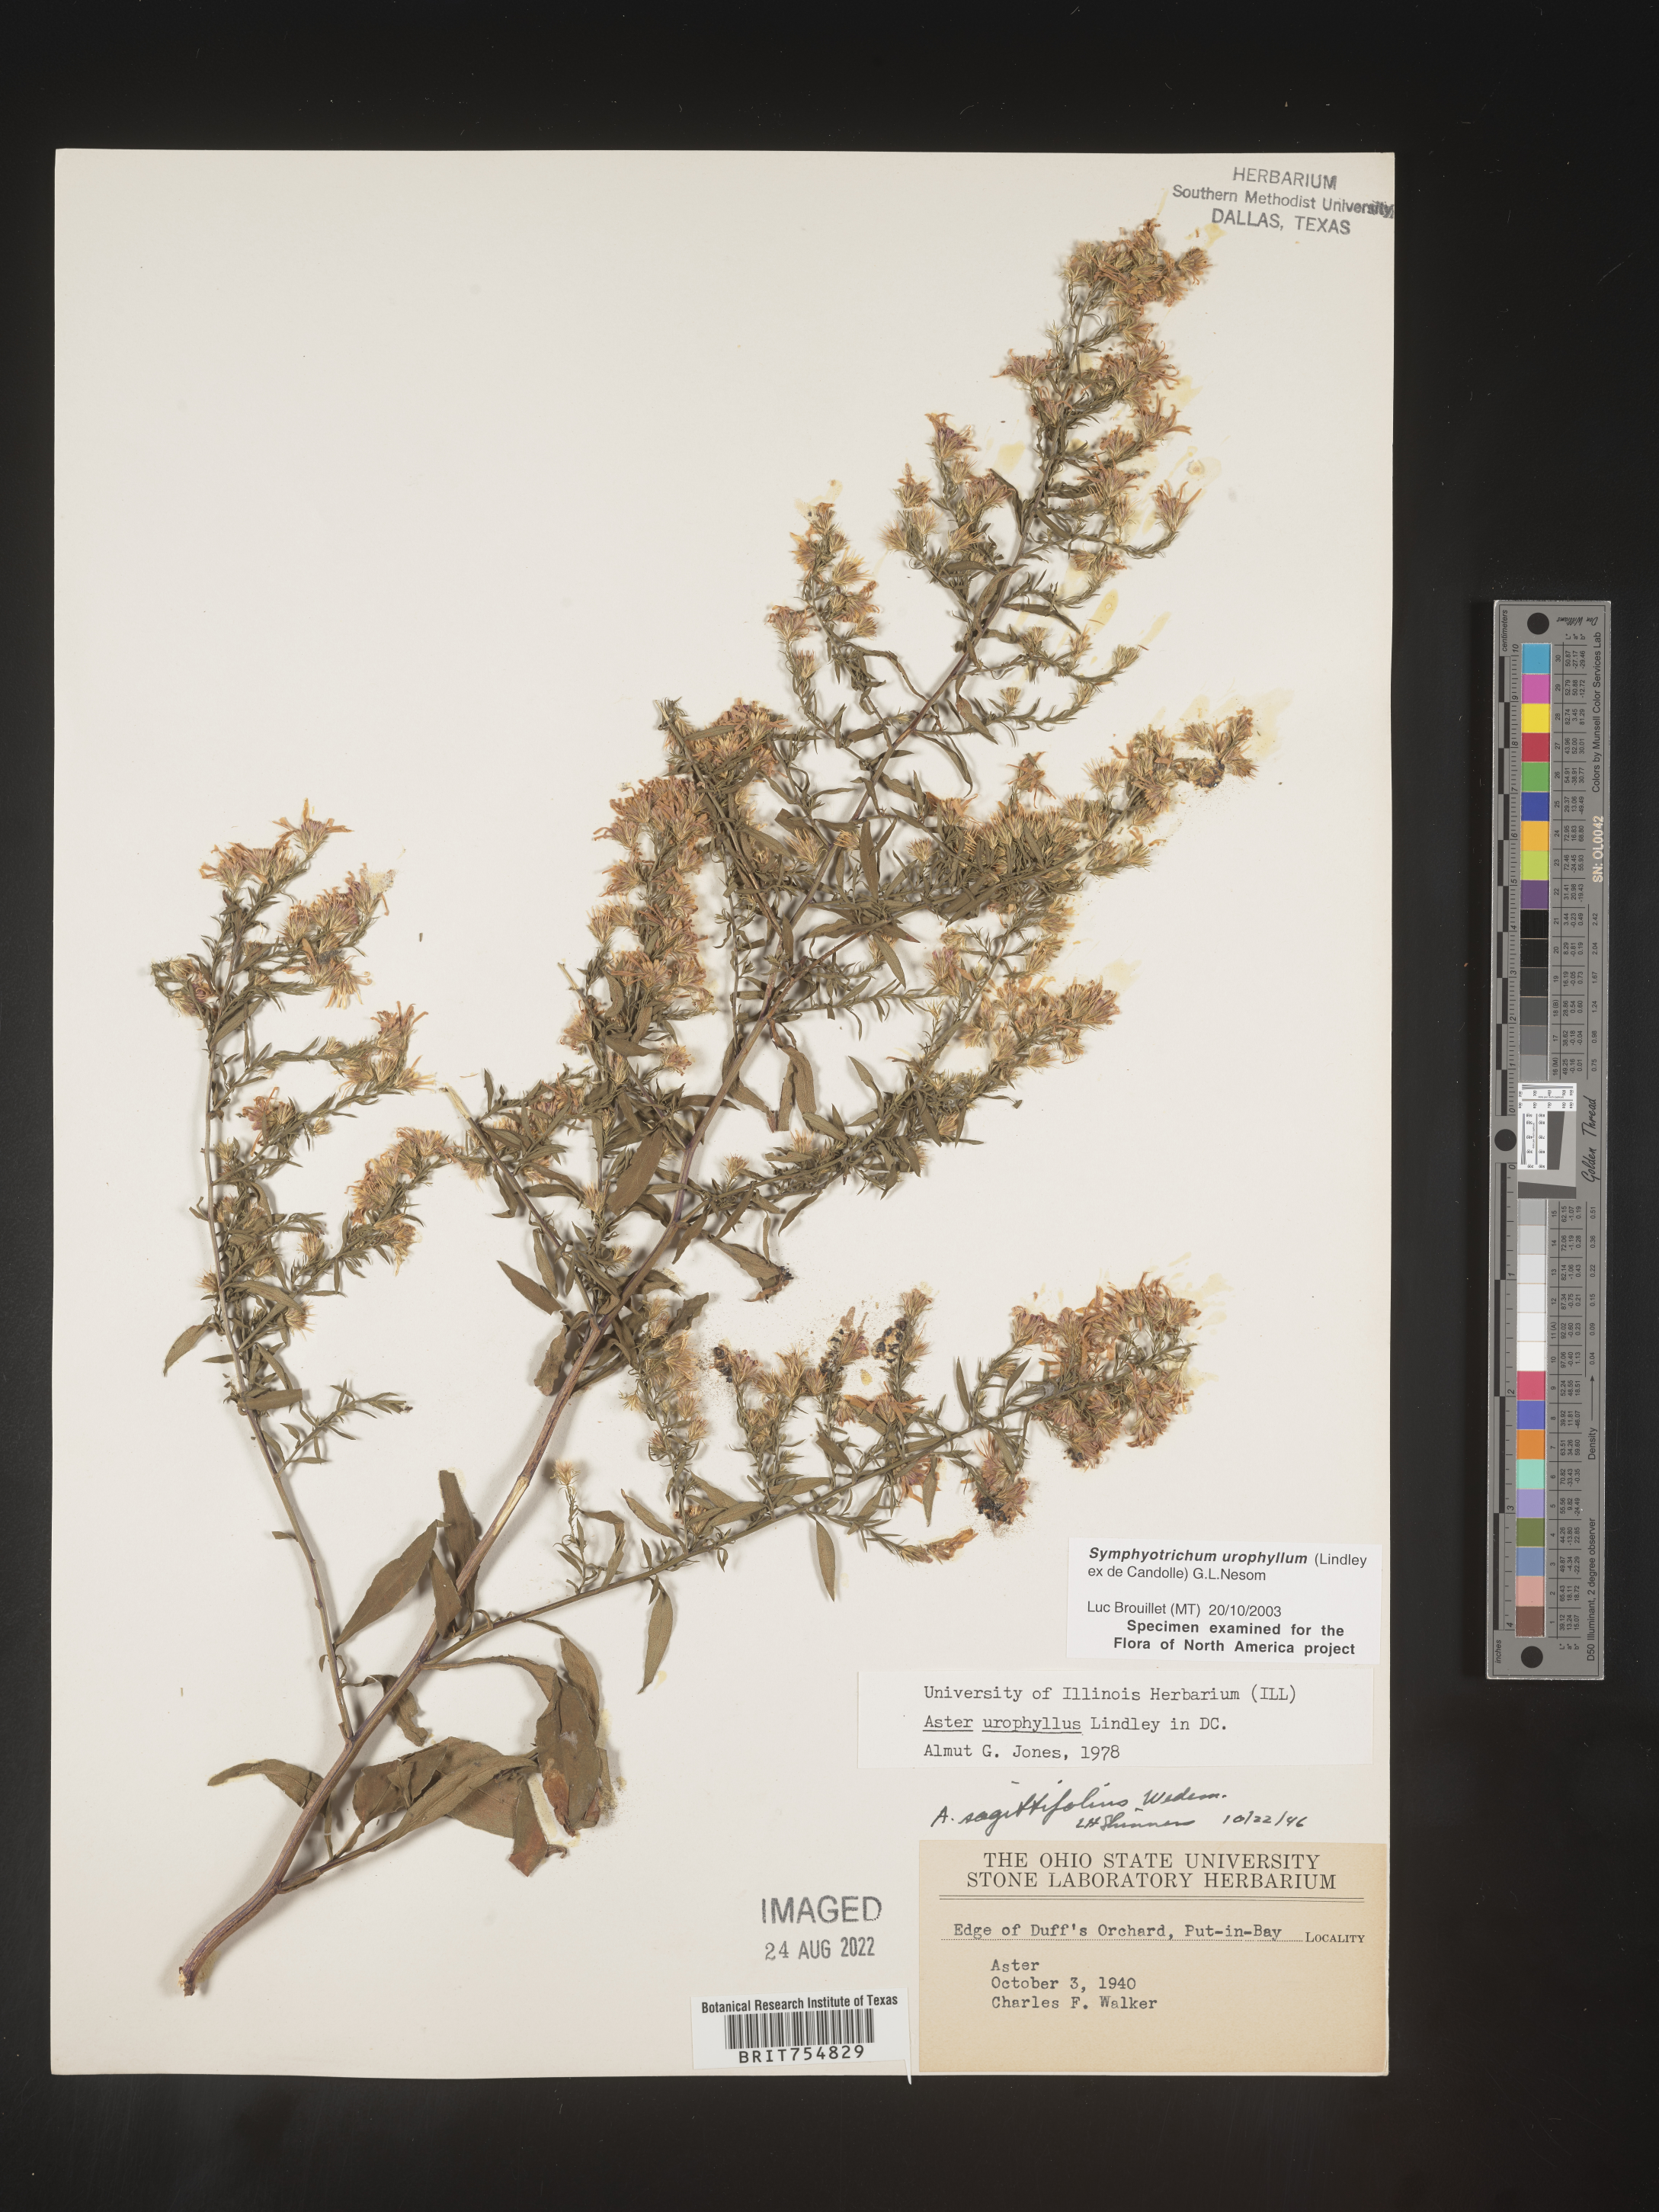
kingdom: Plantae
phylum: Tracheophyta
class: Magnoliopsida
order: Asterales
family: Asteraceae
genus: Symphyotrichum
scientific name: Symphyotrichum urophyllum
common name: Arrow-leaved aster
